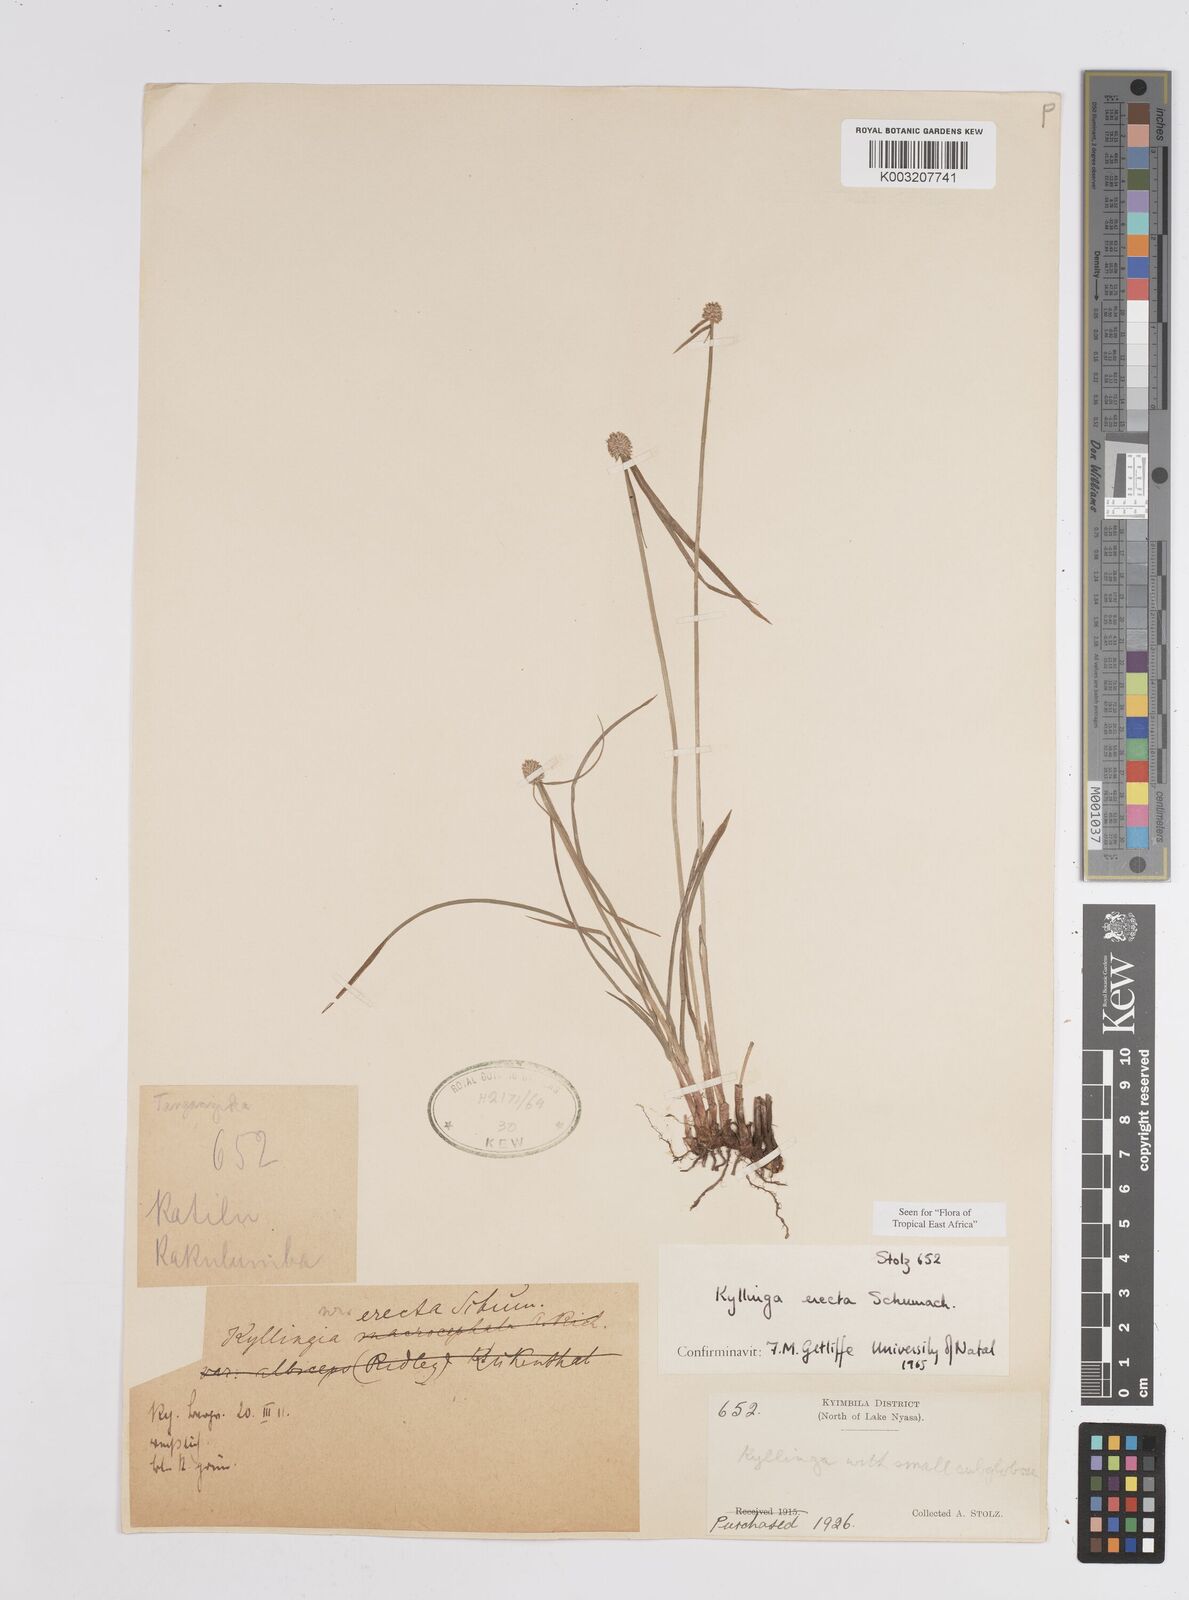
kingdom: Plantae
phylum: Tracheophyta
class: Liliopsida
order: Poales
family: Cyperaceae
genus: Cyperus
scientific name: Cyperus erectus
